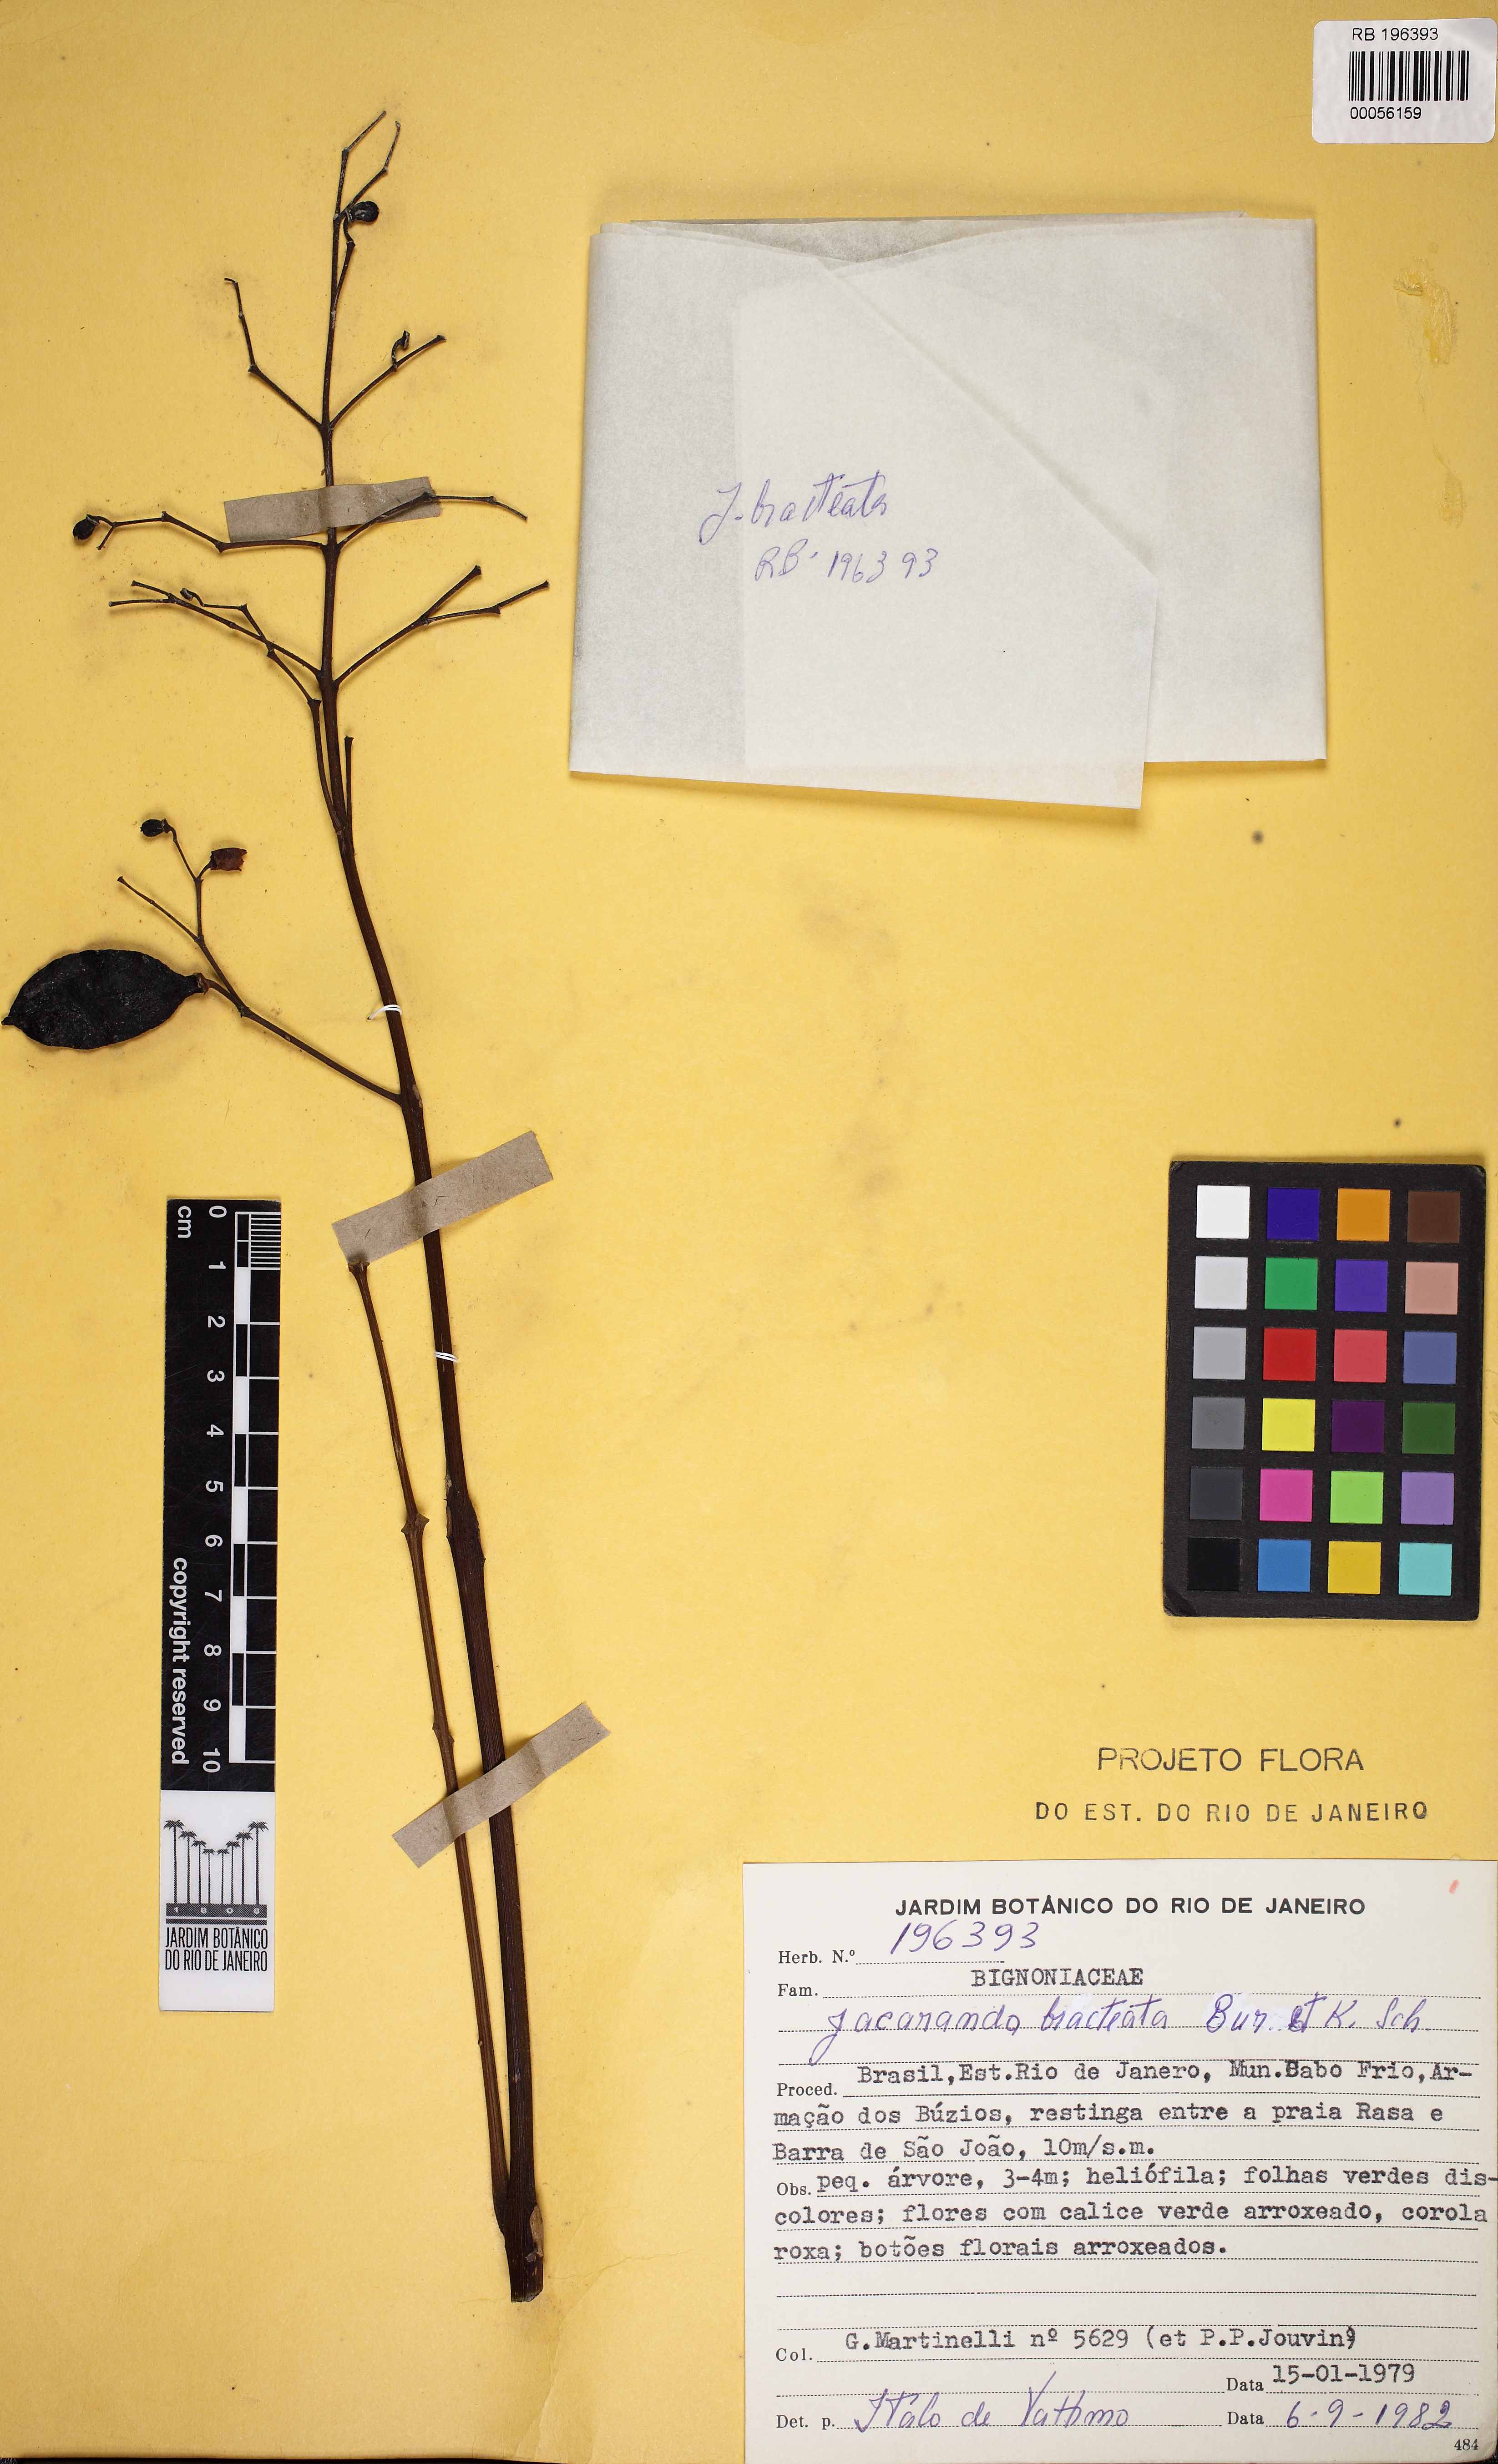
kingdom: Plantae
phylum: Tracheophyta
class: Magnoliopsida
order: Lamiales
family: Bignoniaceae
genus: Jacaranda
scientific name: Jacaranda bracteata
